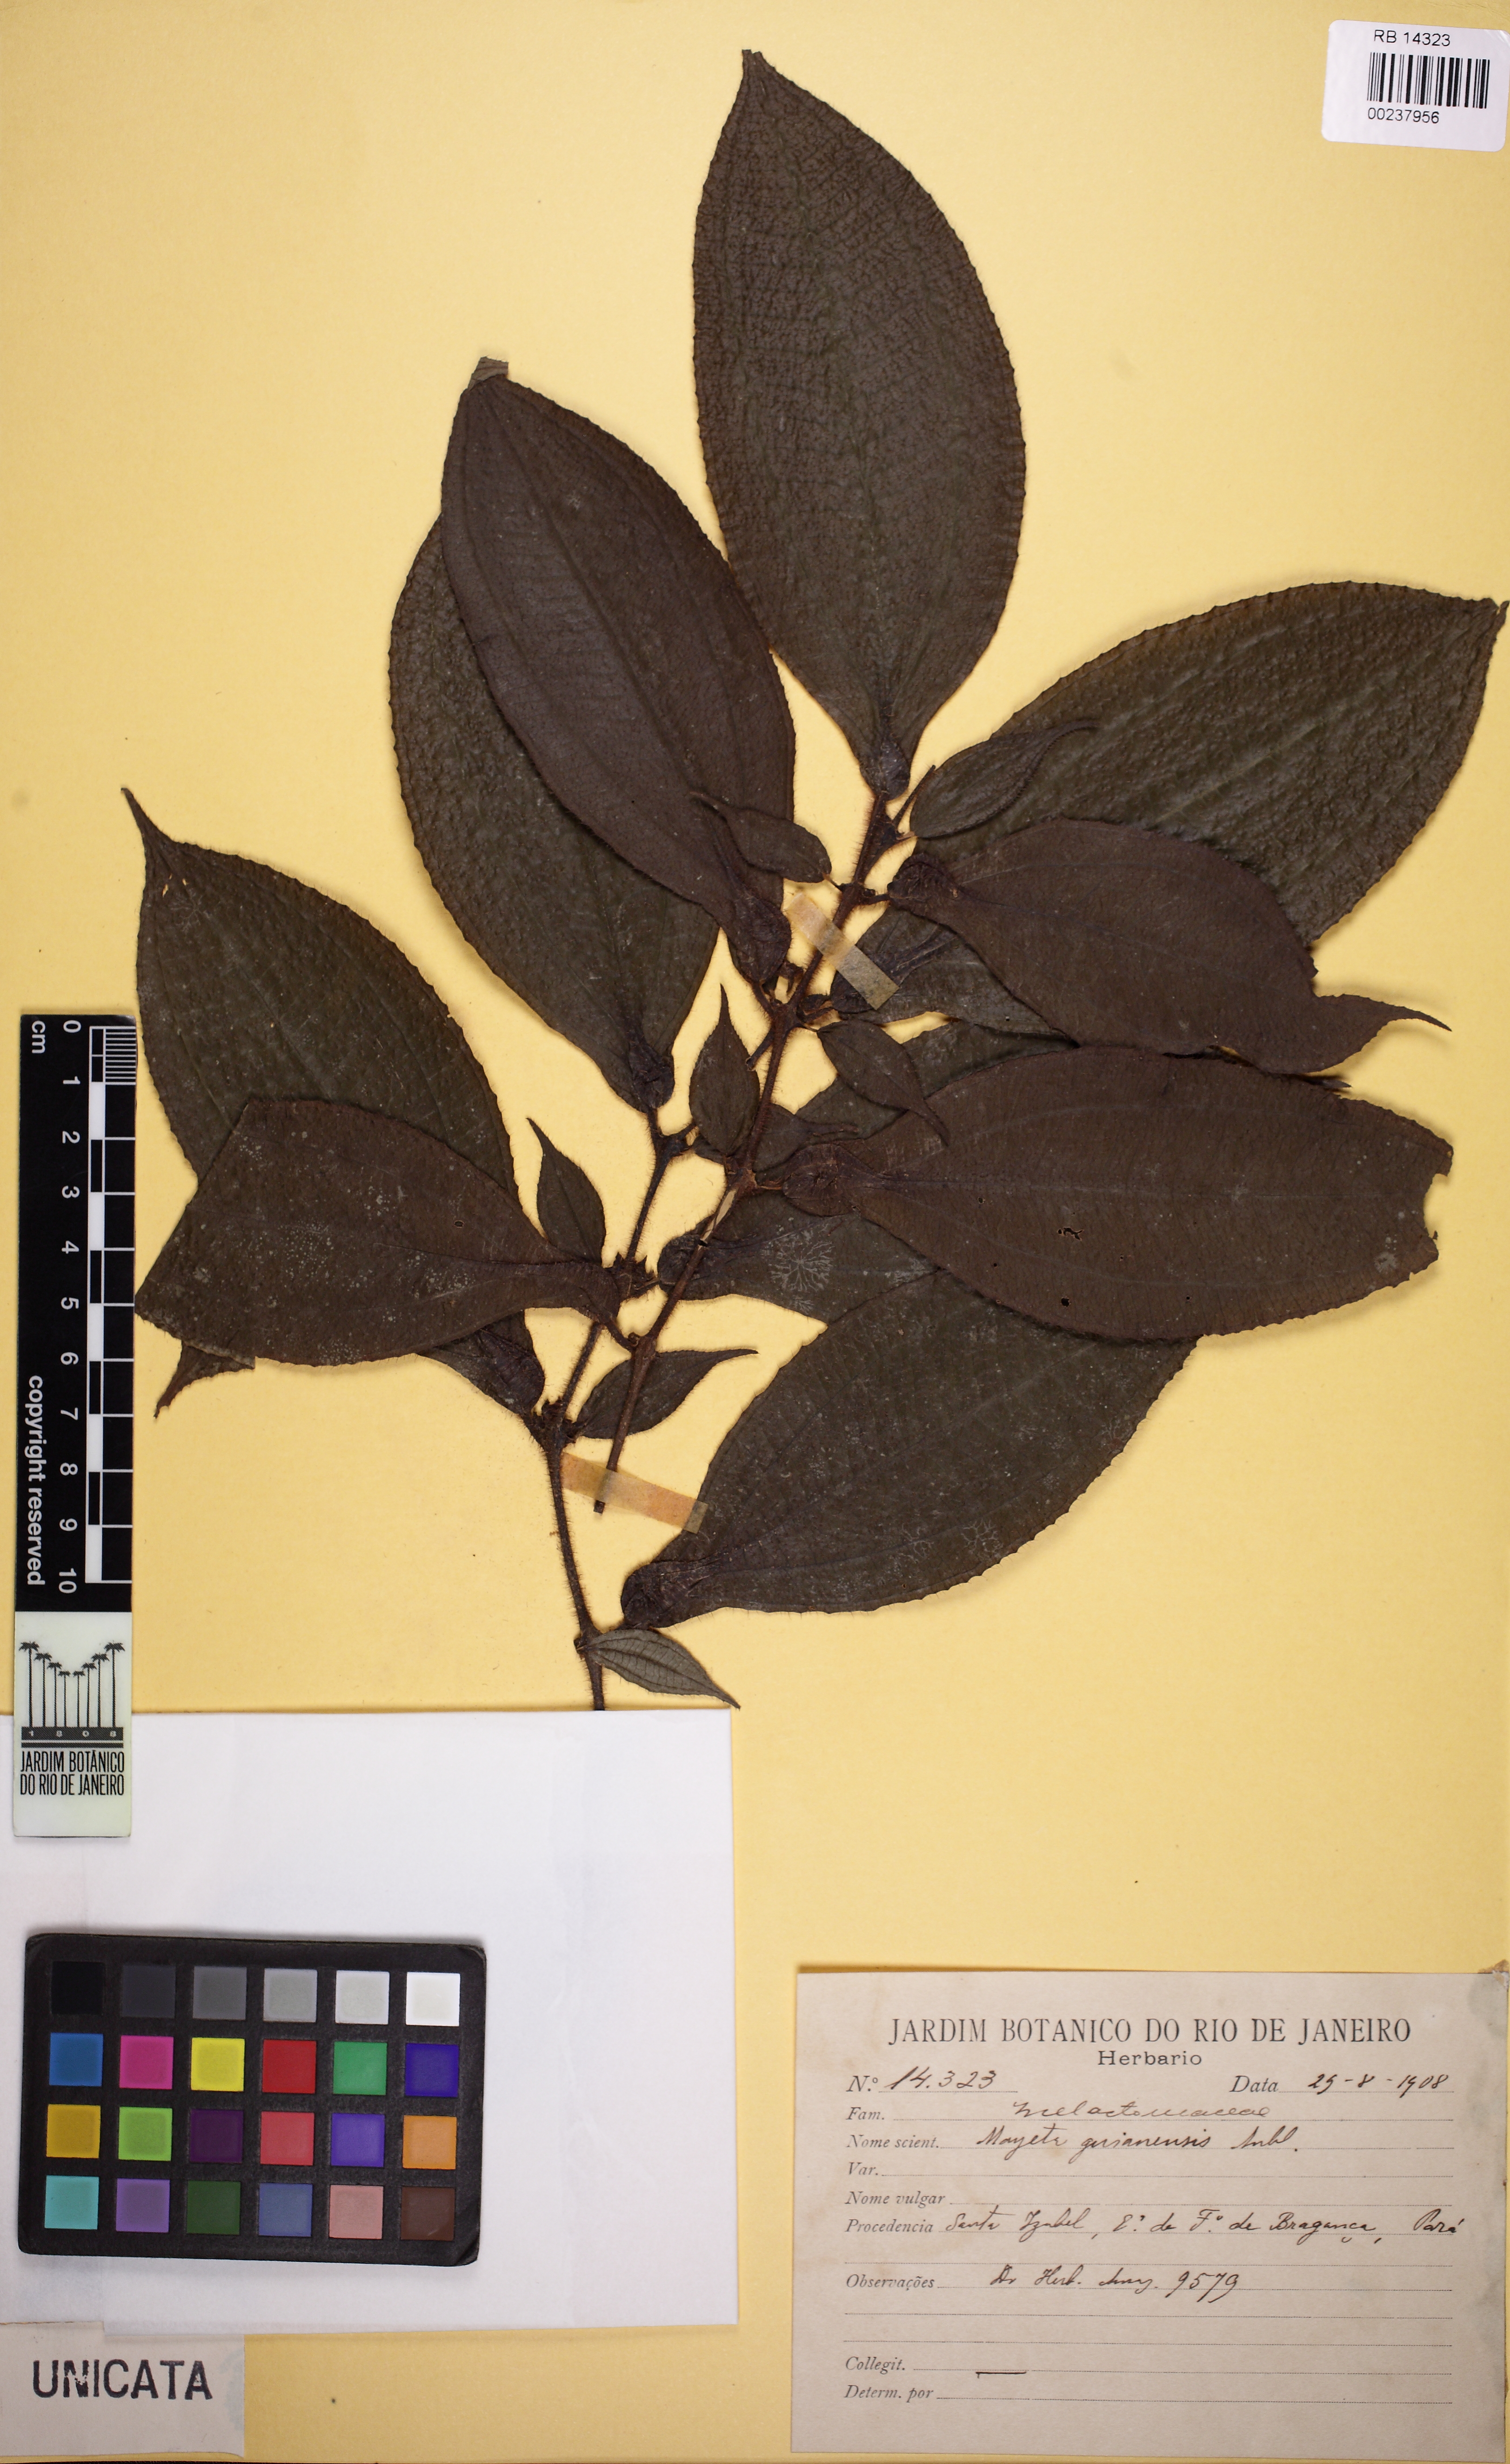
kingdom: Plantae
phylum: Tracheophyta
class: Magnoliopsida
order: Myrtales
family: Melastomataceae
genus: Miconia
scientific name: Miconia mayeta
